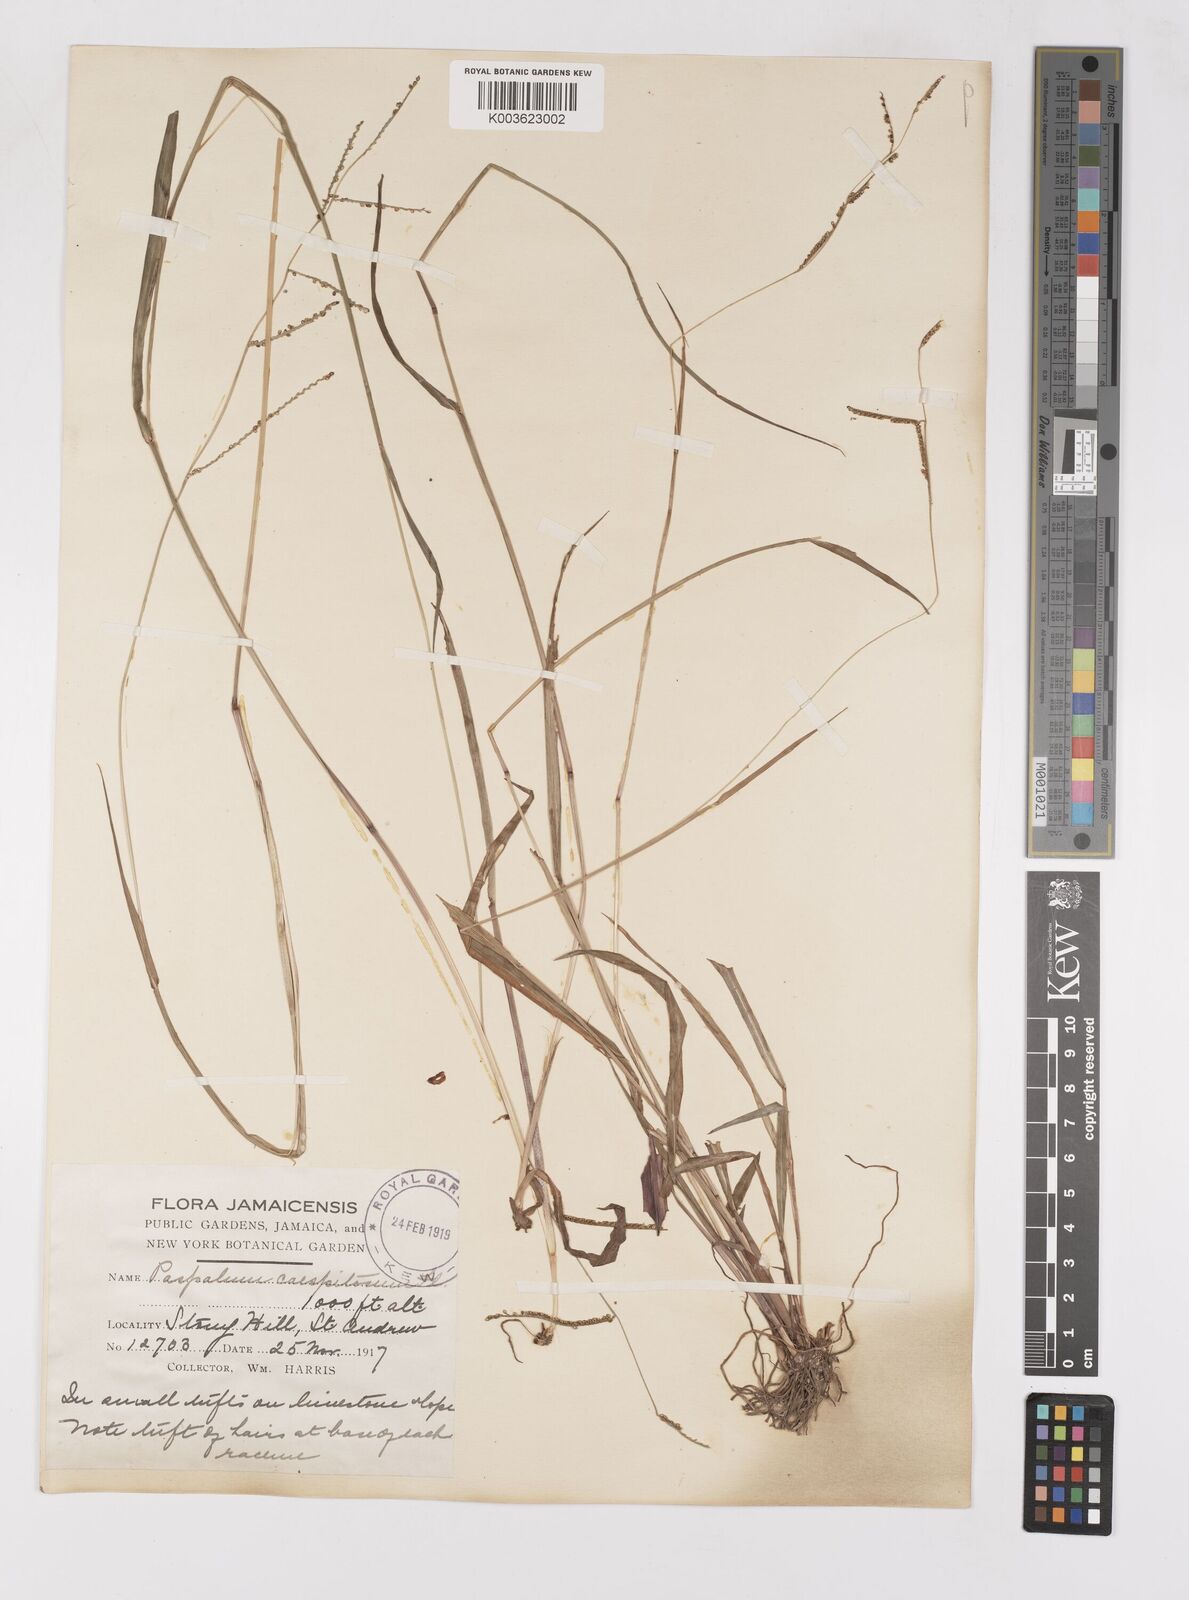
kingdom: Plantae
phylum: Tracheophyta
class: Liliopsida
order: Poales
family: Poaceae
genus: Paspalum
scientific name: Paspalum blodgettii
